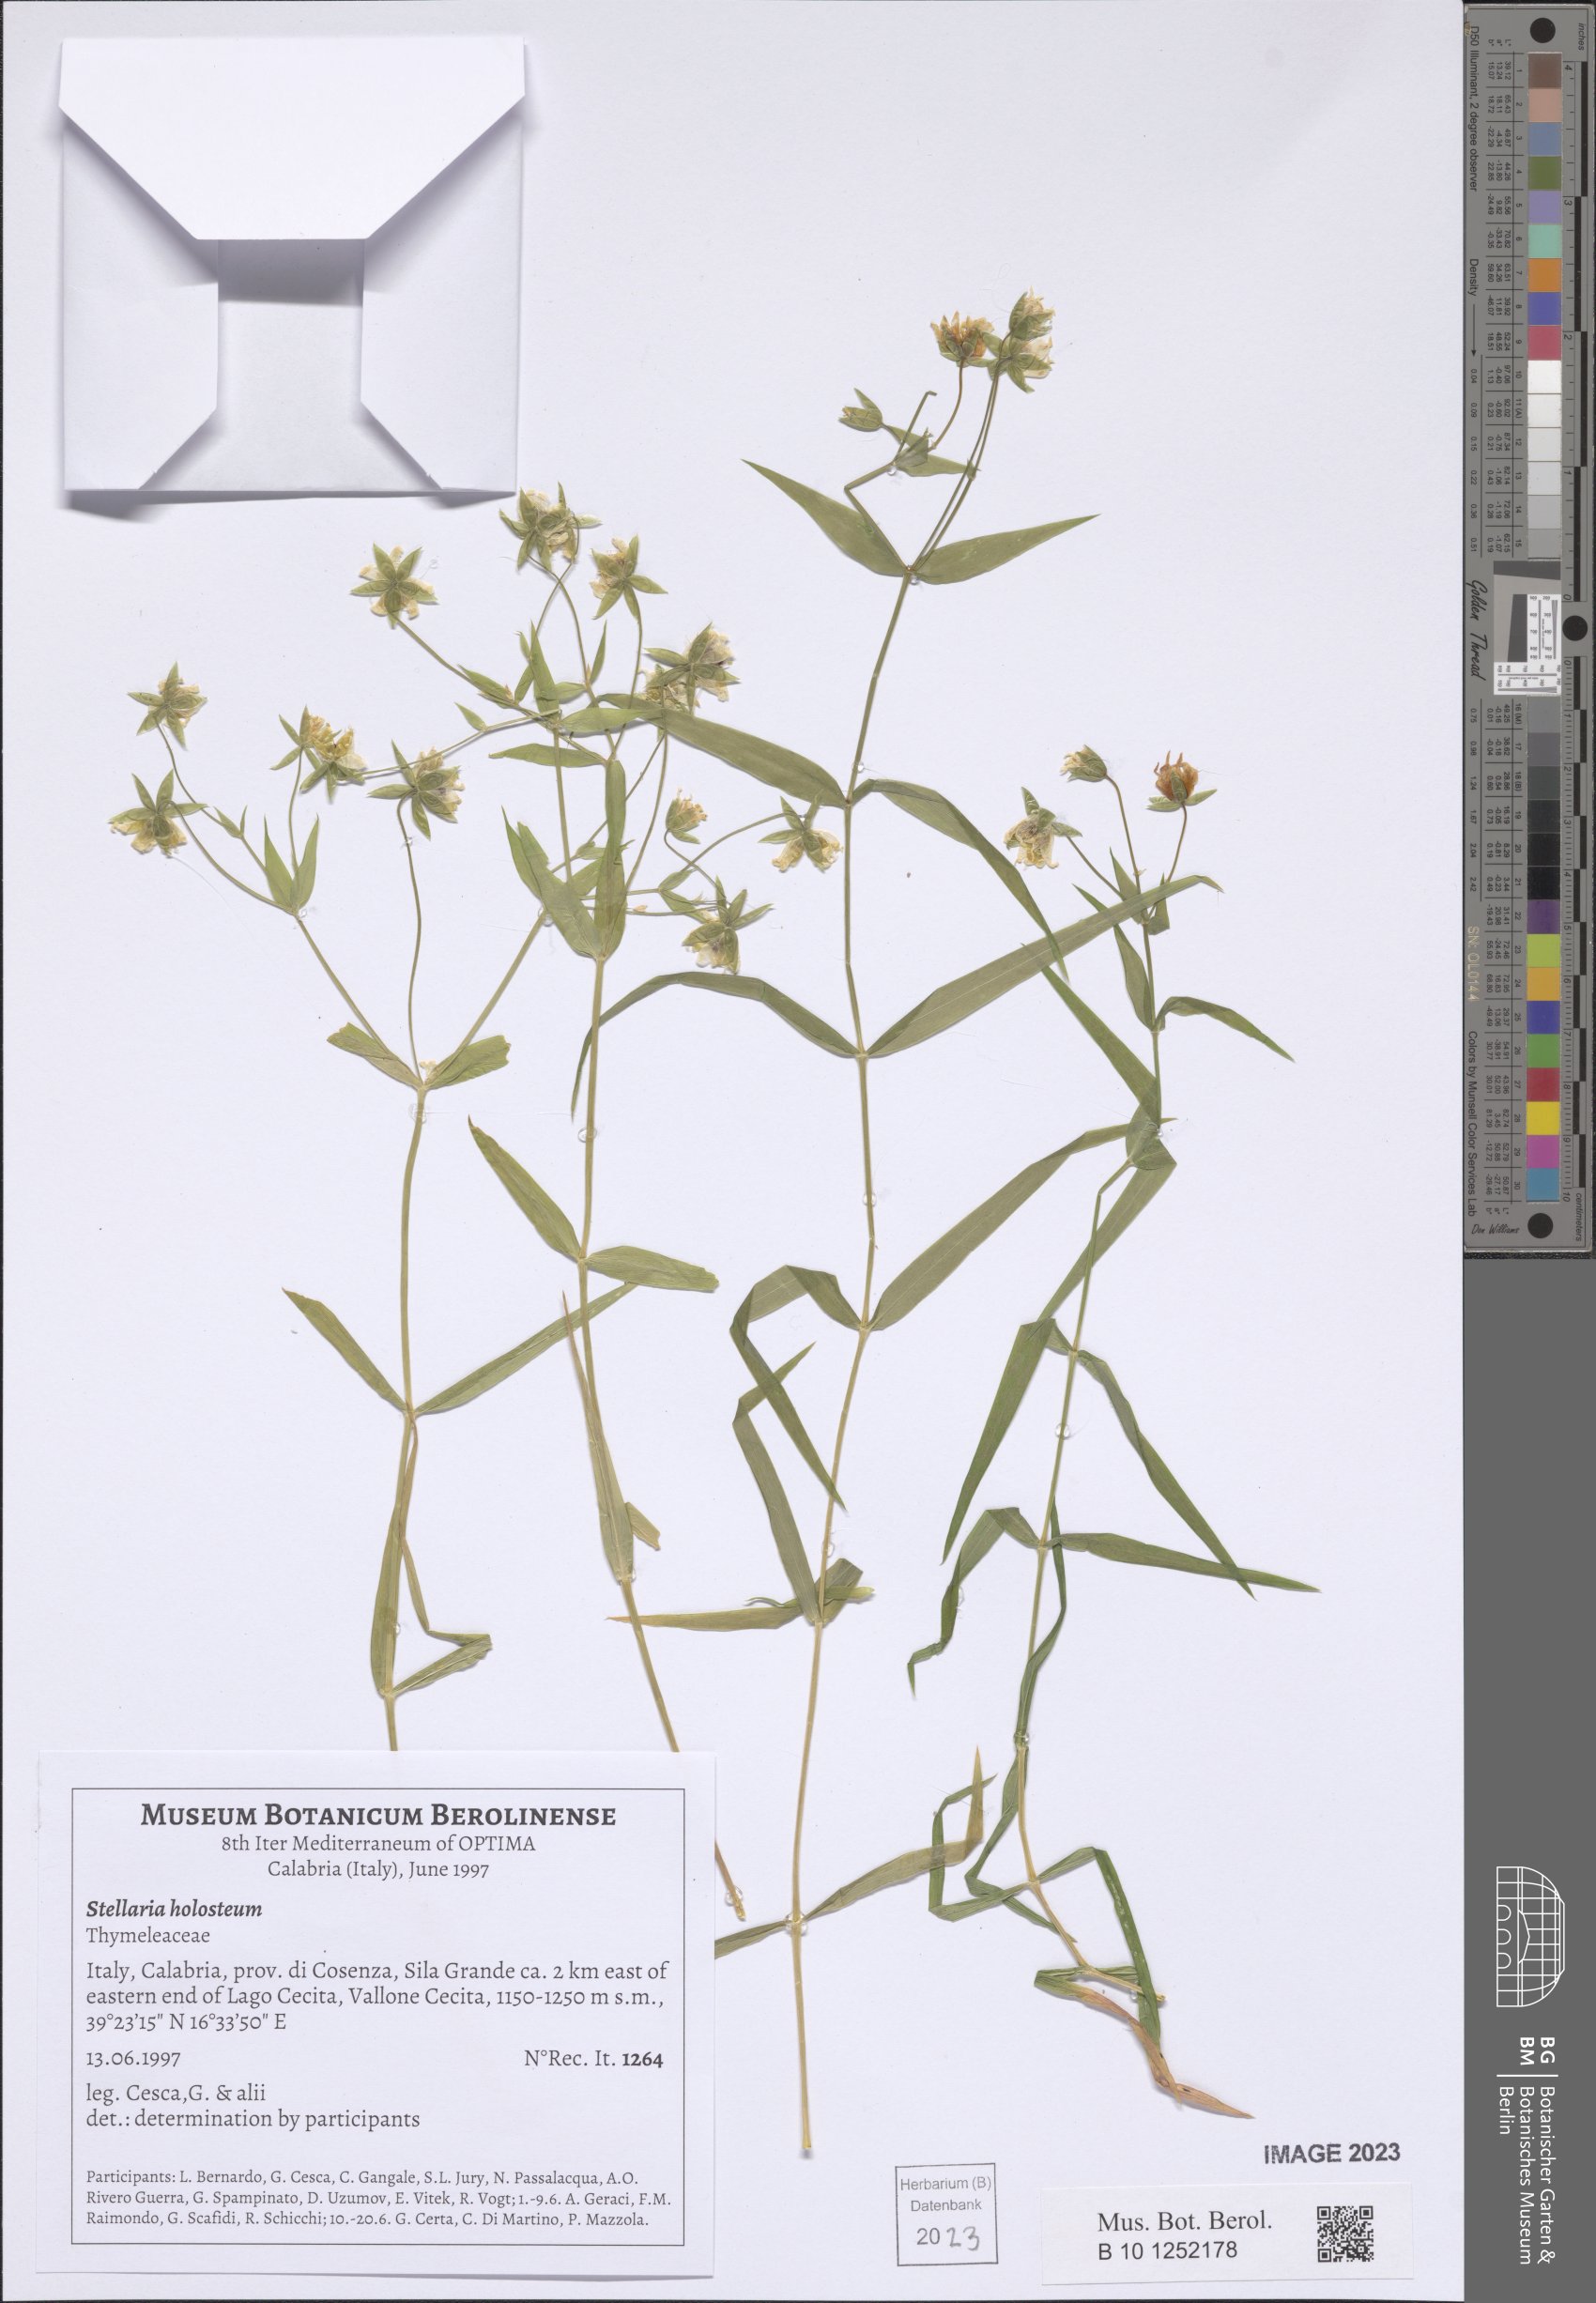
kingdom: Plantae
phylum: Tracheophyta
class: Magnoliopsida
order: Caryophyllales
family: Caryophyllaceae
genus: Rabelera
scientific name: Rabelera holostea
